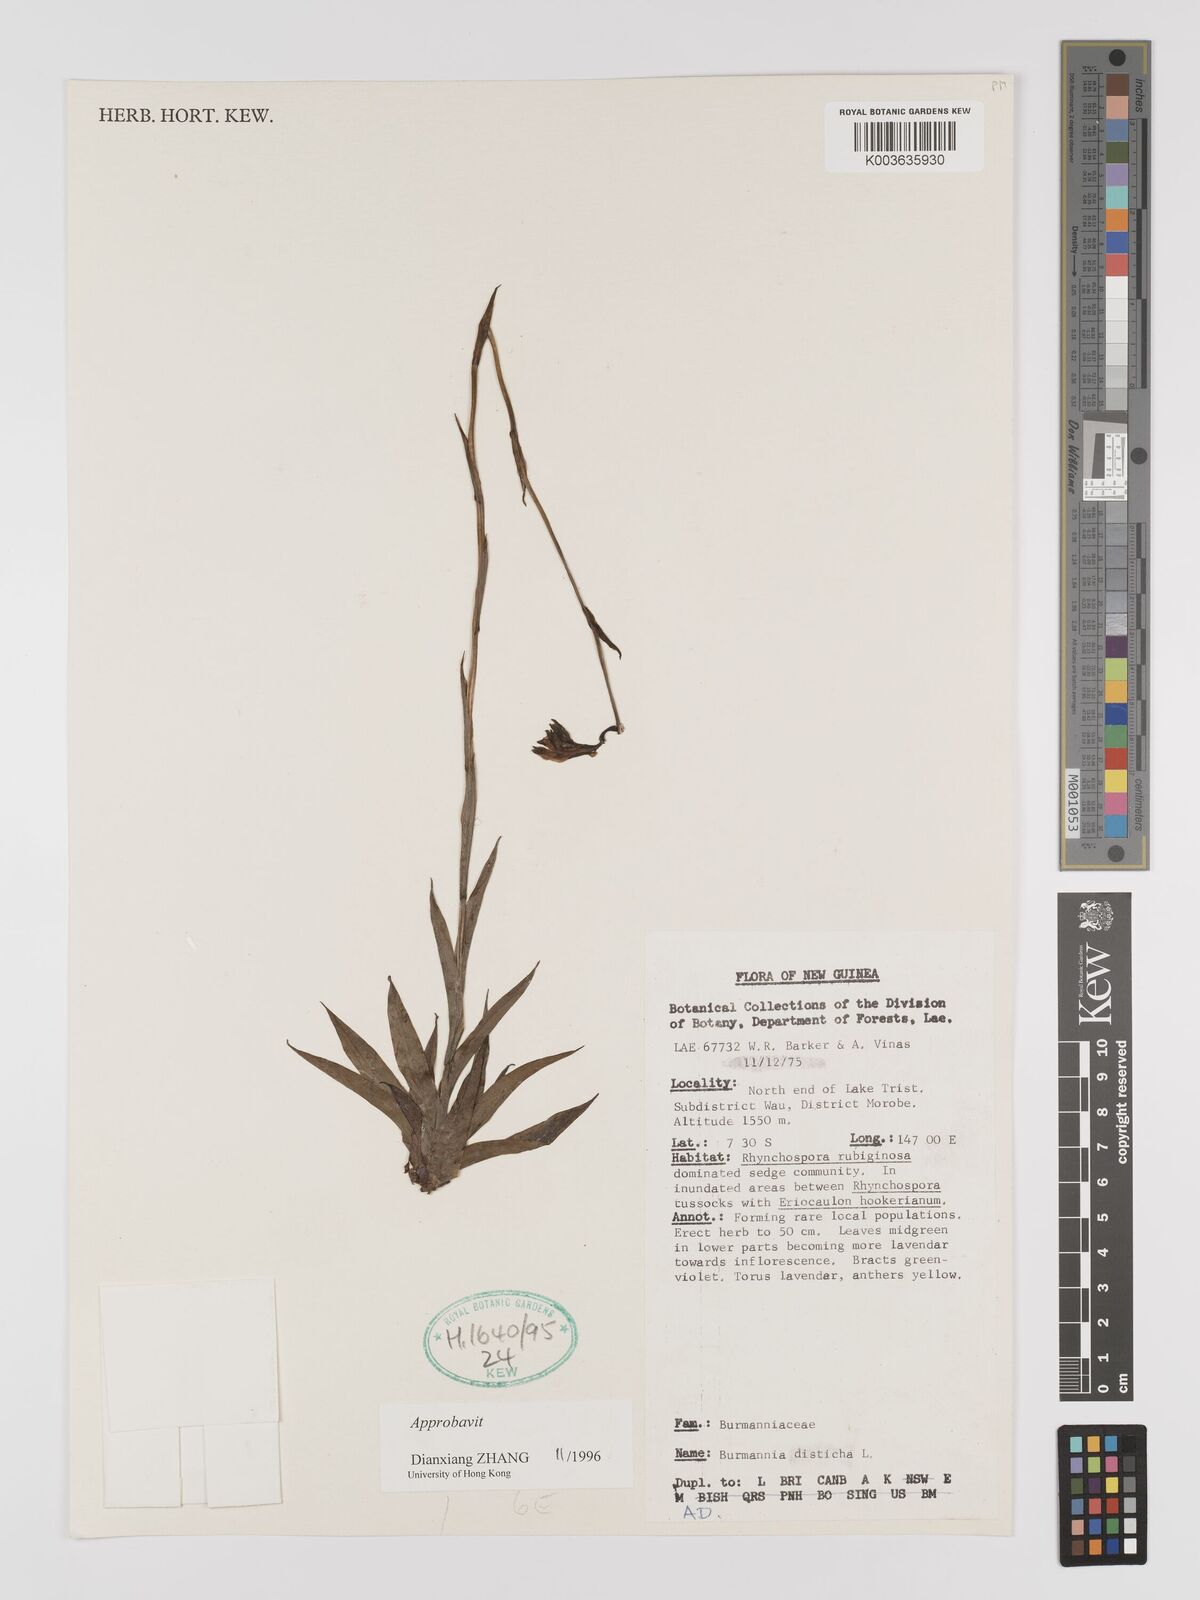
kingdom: Plantae
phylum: Tracheophyta
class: Liliopsida
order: Dioscoreales
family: Burmanniaceae
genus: Burmannia
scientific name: Burmannia disticha
